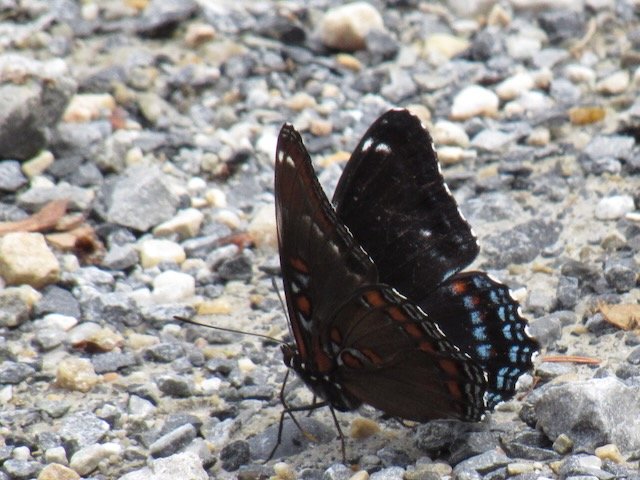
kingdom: Animalia
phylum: Arthropoda
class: Insecta
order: Lepidoptera
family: Nymphalidae
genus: Limenitis
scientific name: Limenitis arthemis
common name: Red-spotted Admiral
